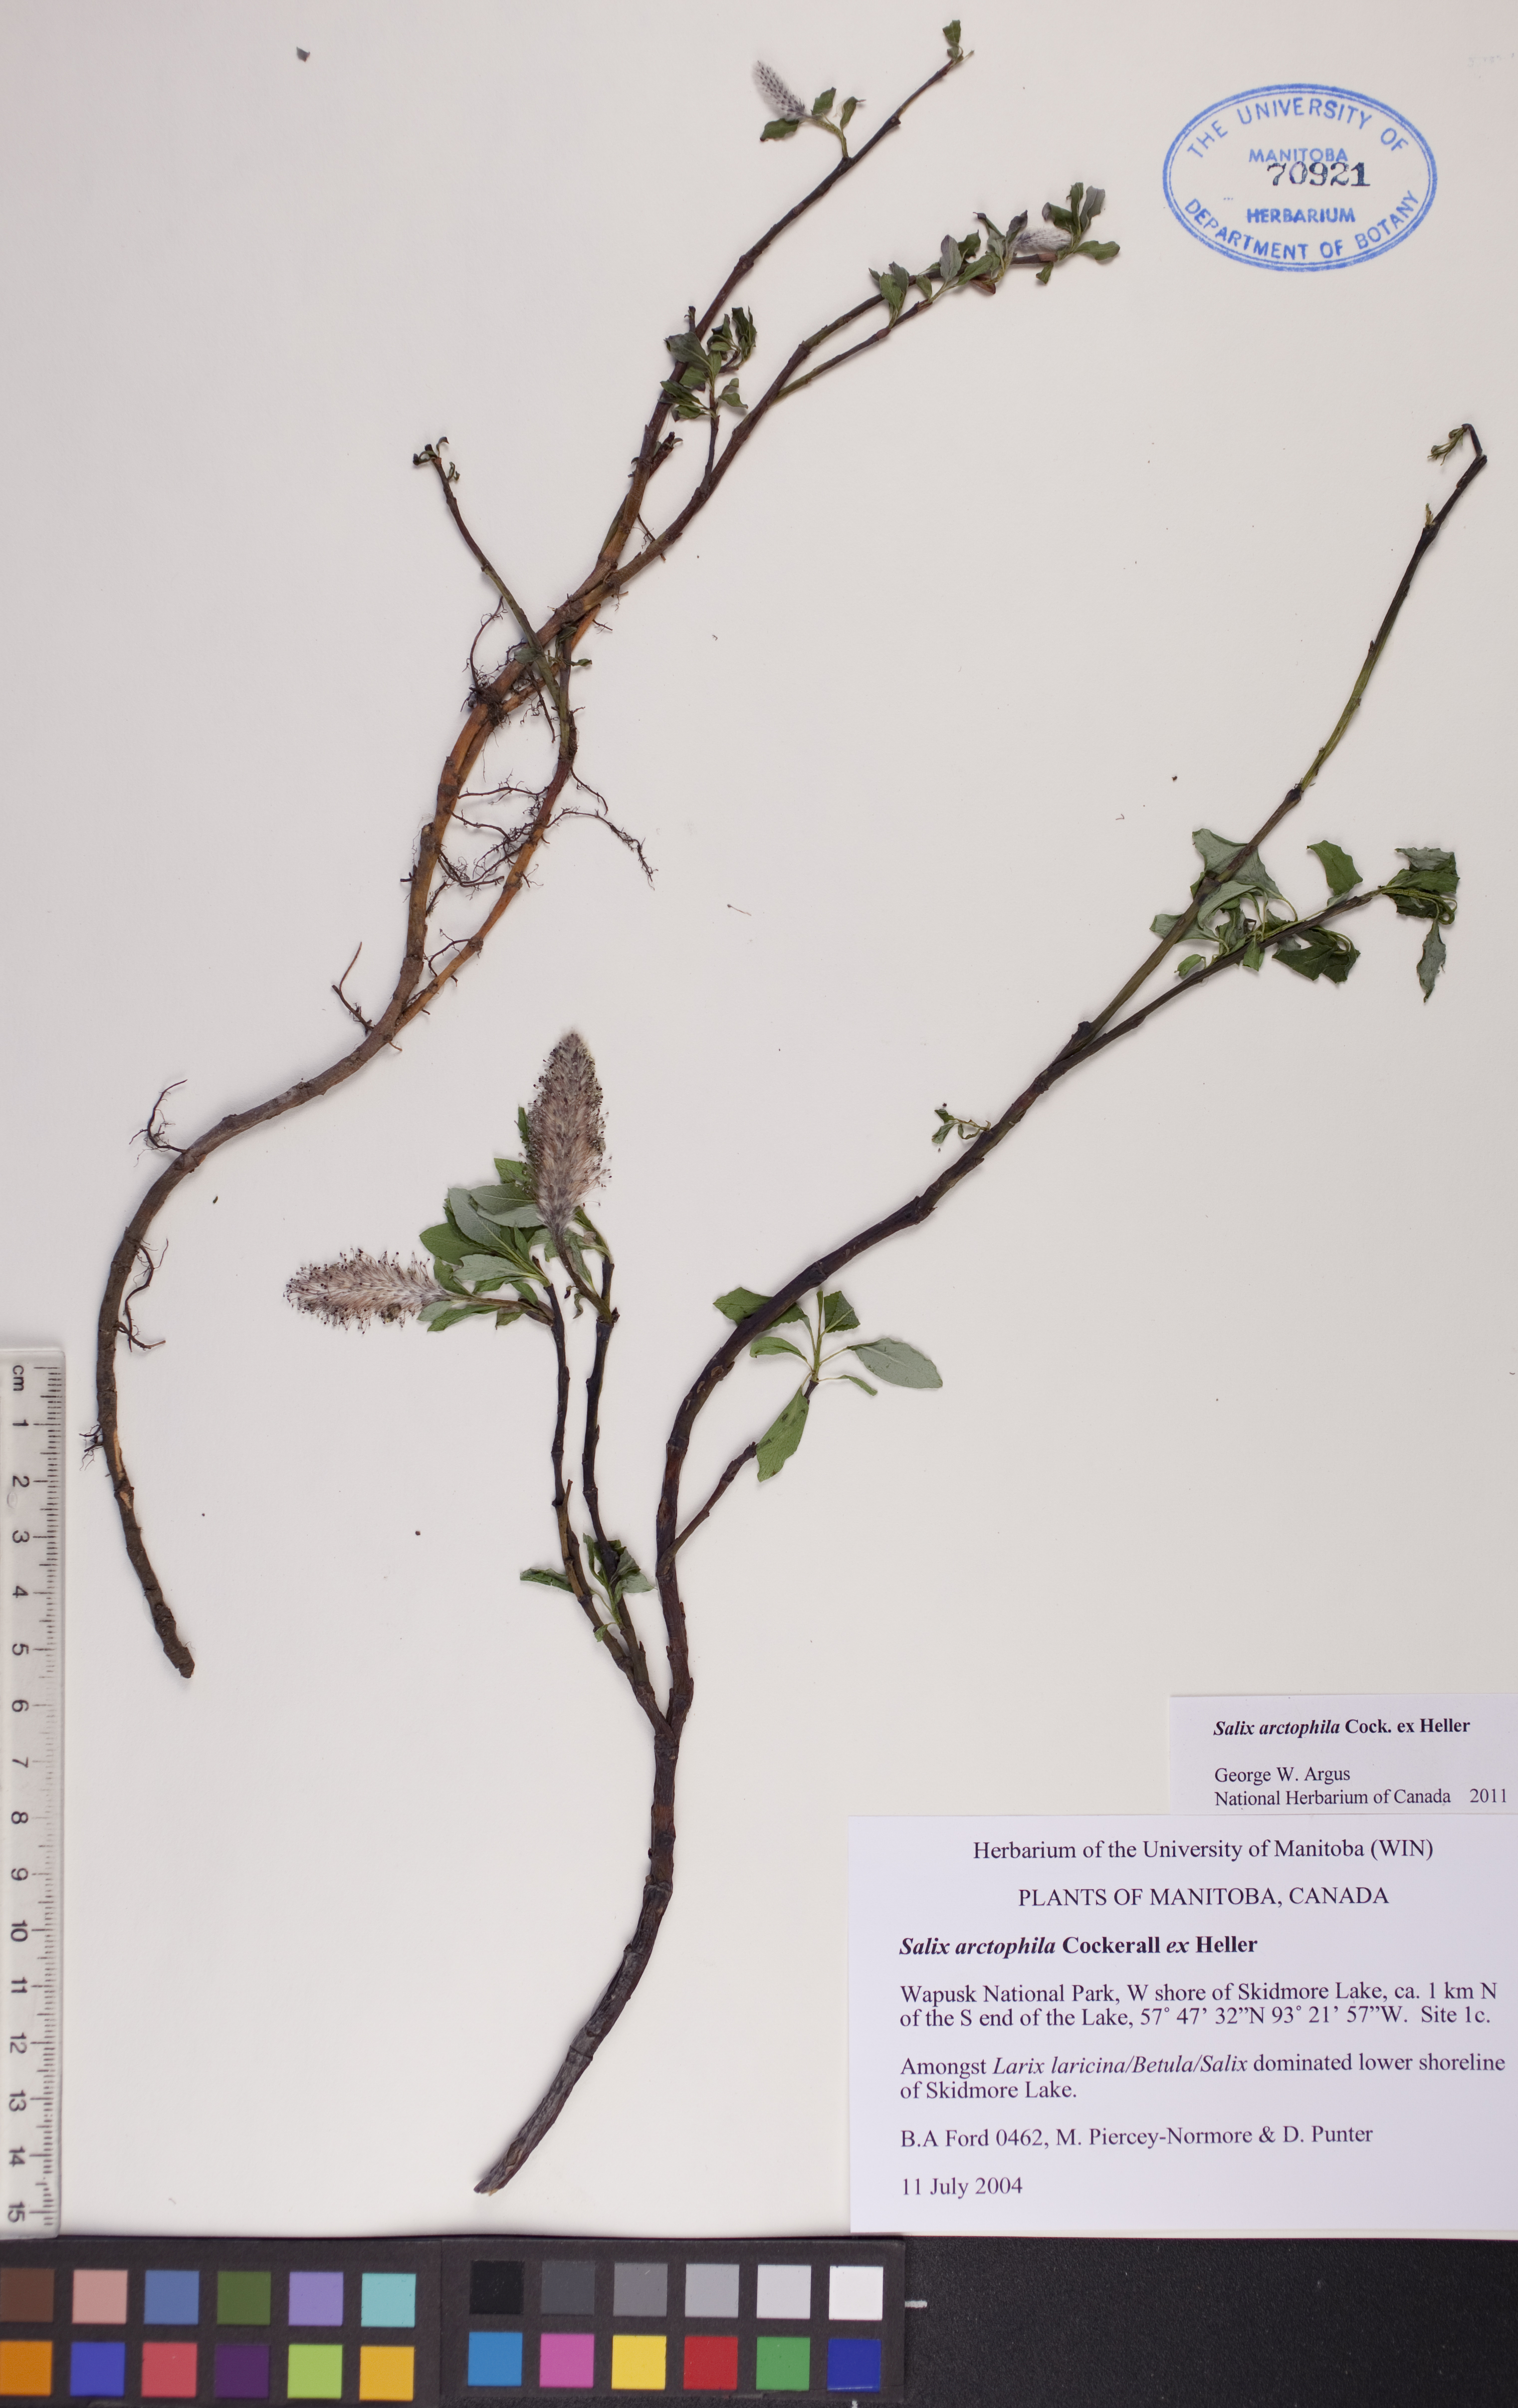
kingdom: Plantae
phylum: Tracheophyta
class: Magnoliopsida
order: Malpighiales
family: Salicaceae
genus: Salix
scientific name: Salix arctophila
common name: Greenland willow
